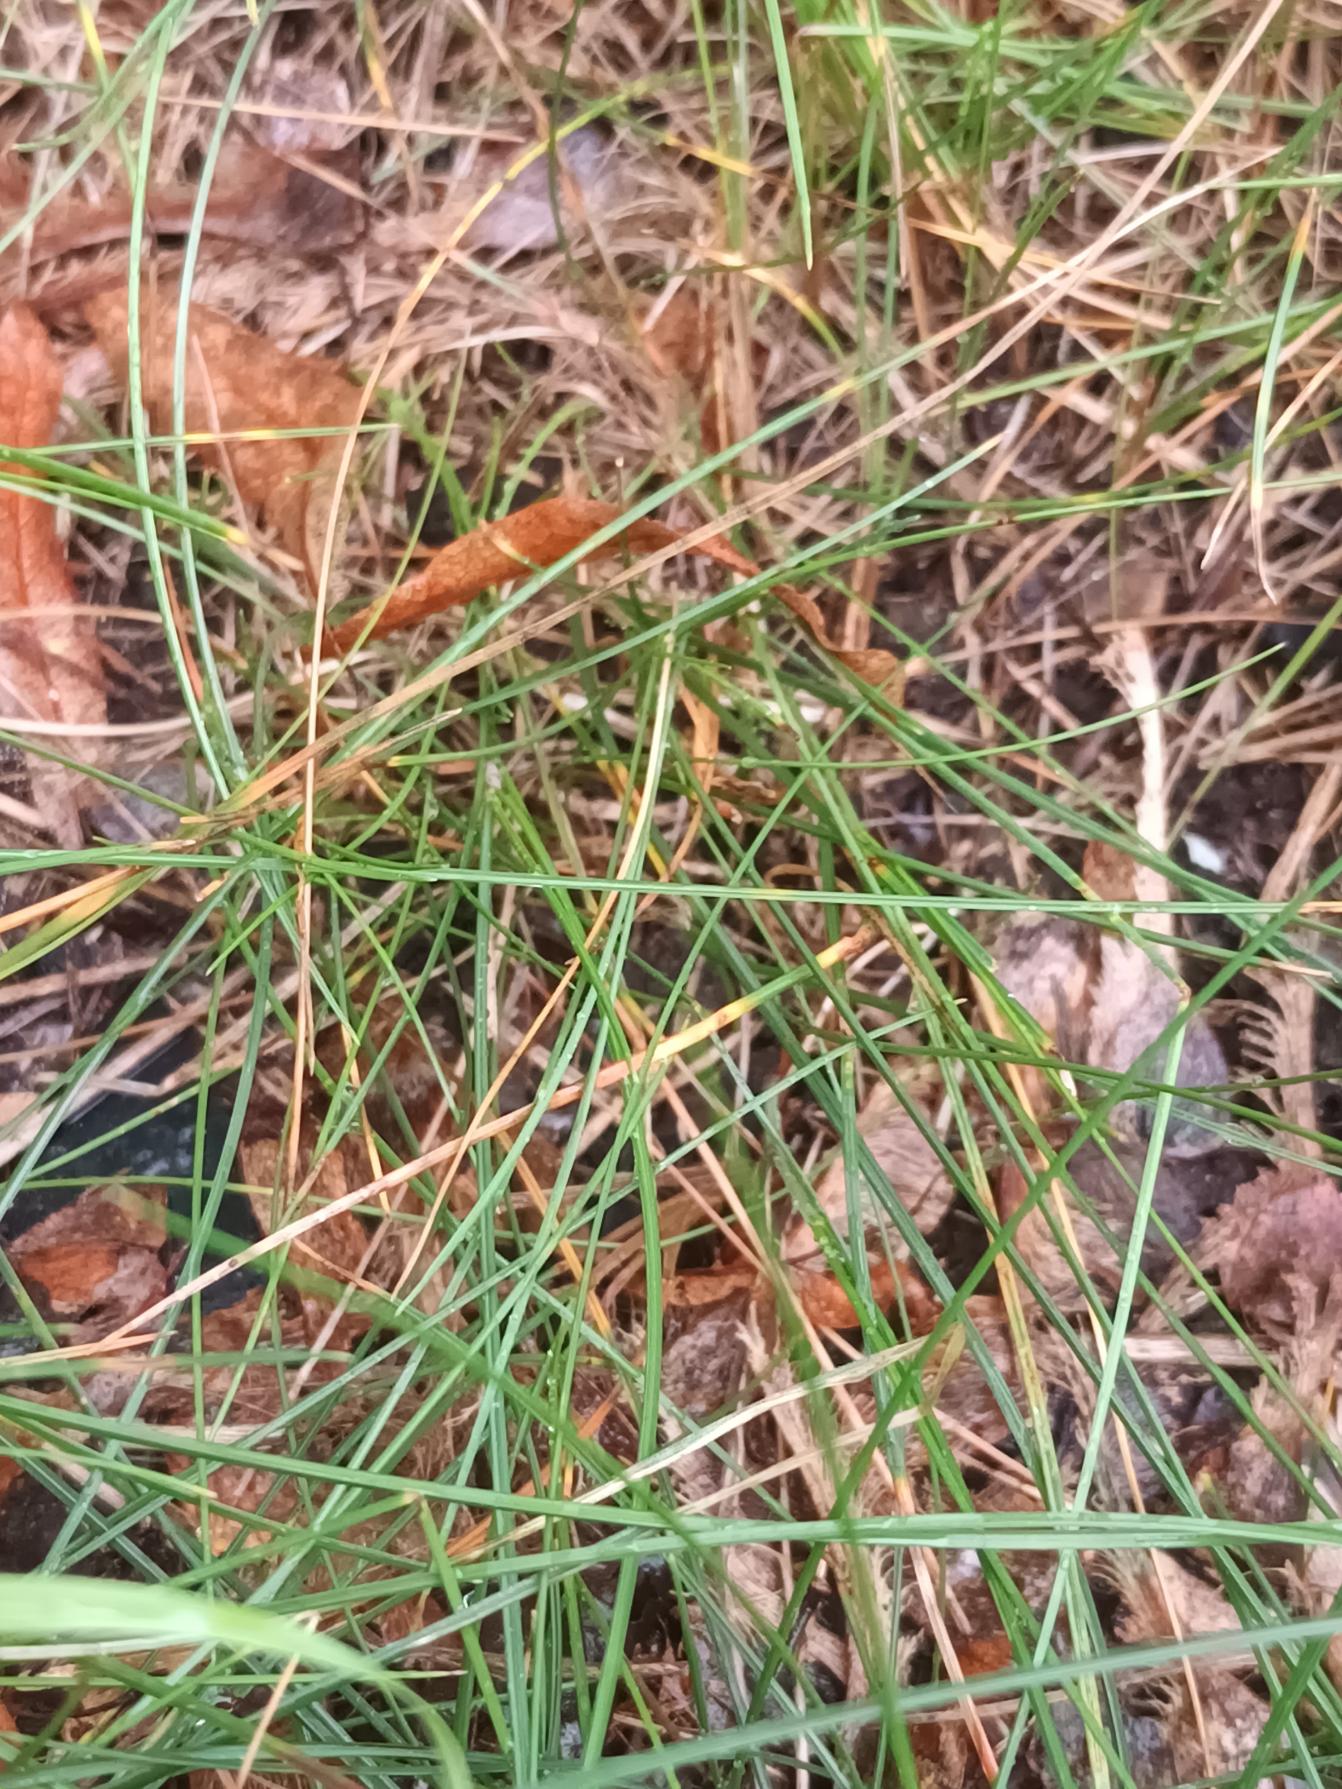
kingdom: Plantae
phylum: Tracheophyta
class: Liliopsida
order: Poales
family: Poaceae
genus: Festuca
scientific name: Festuca rubra
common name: Rød svingel
